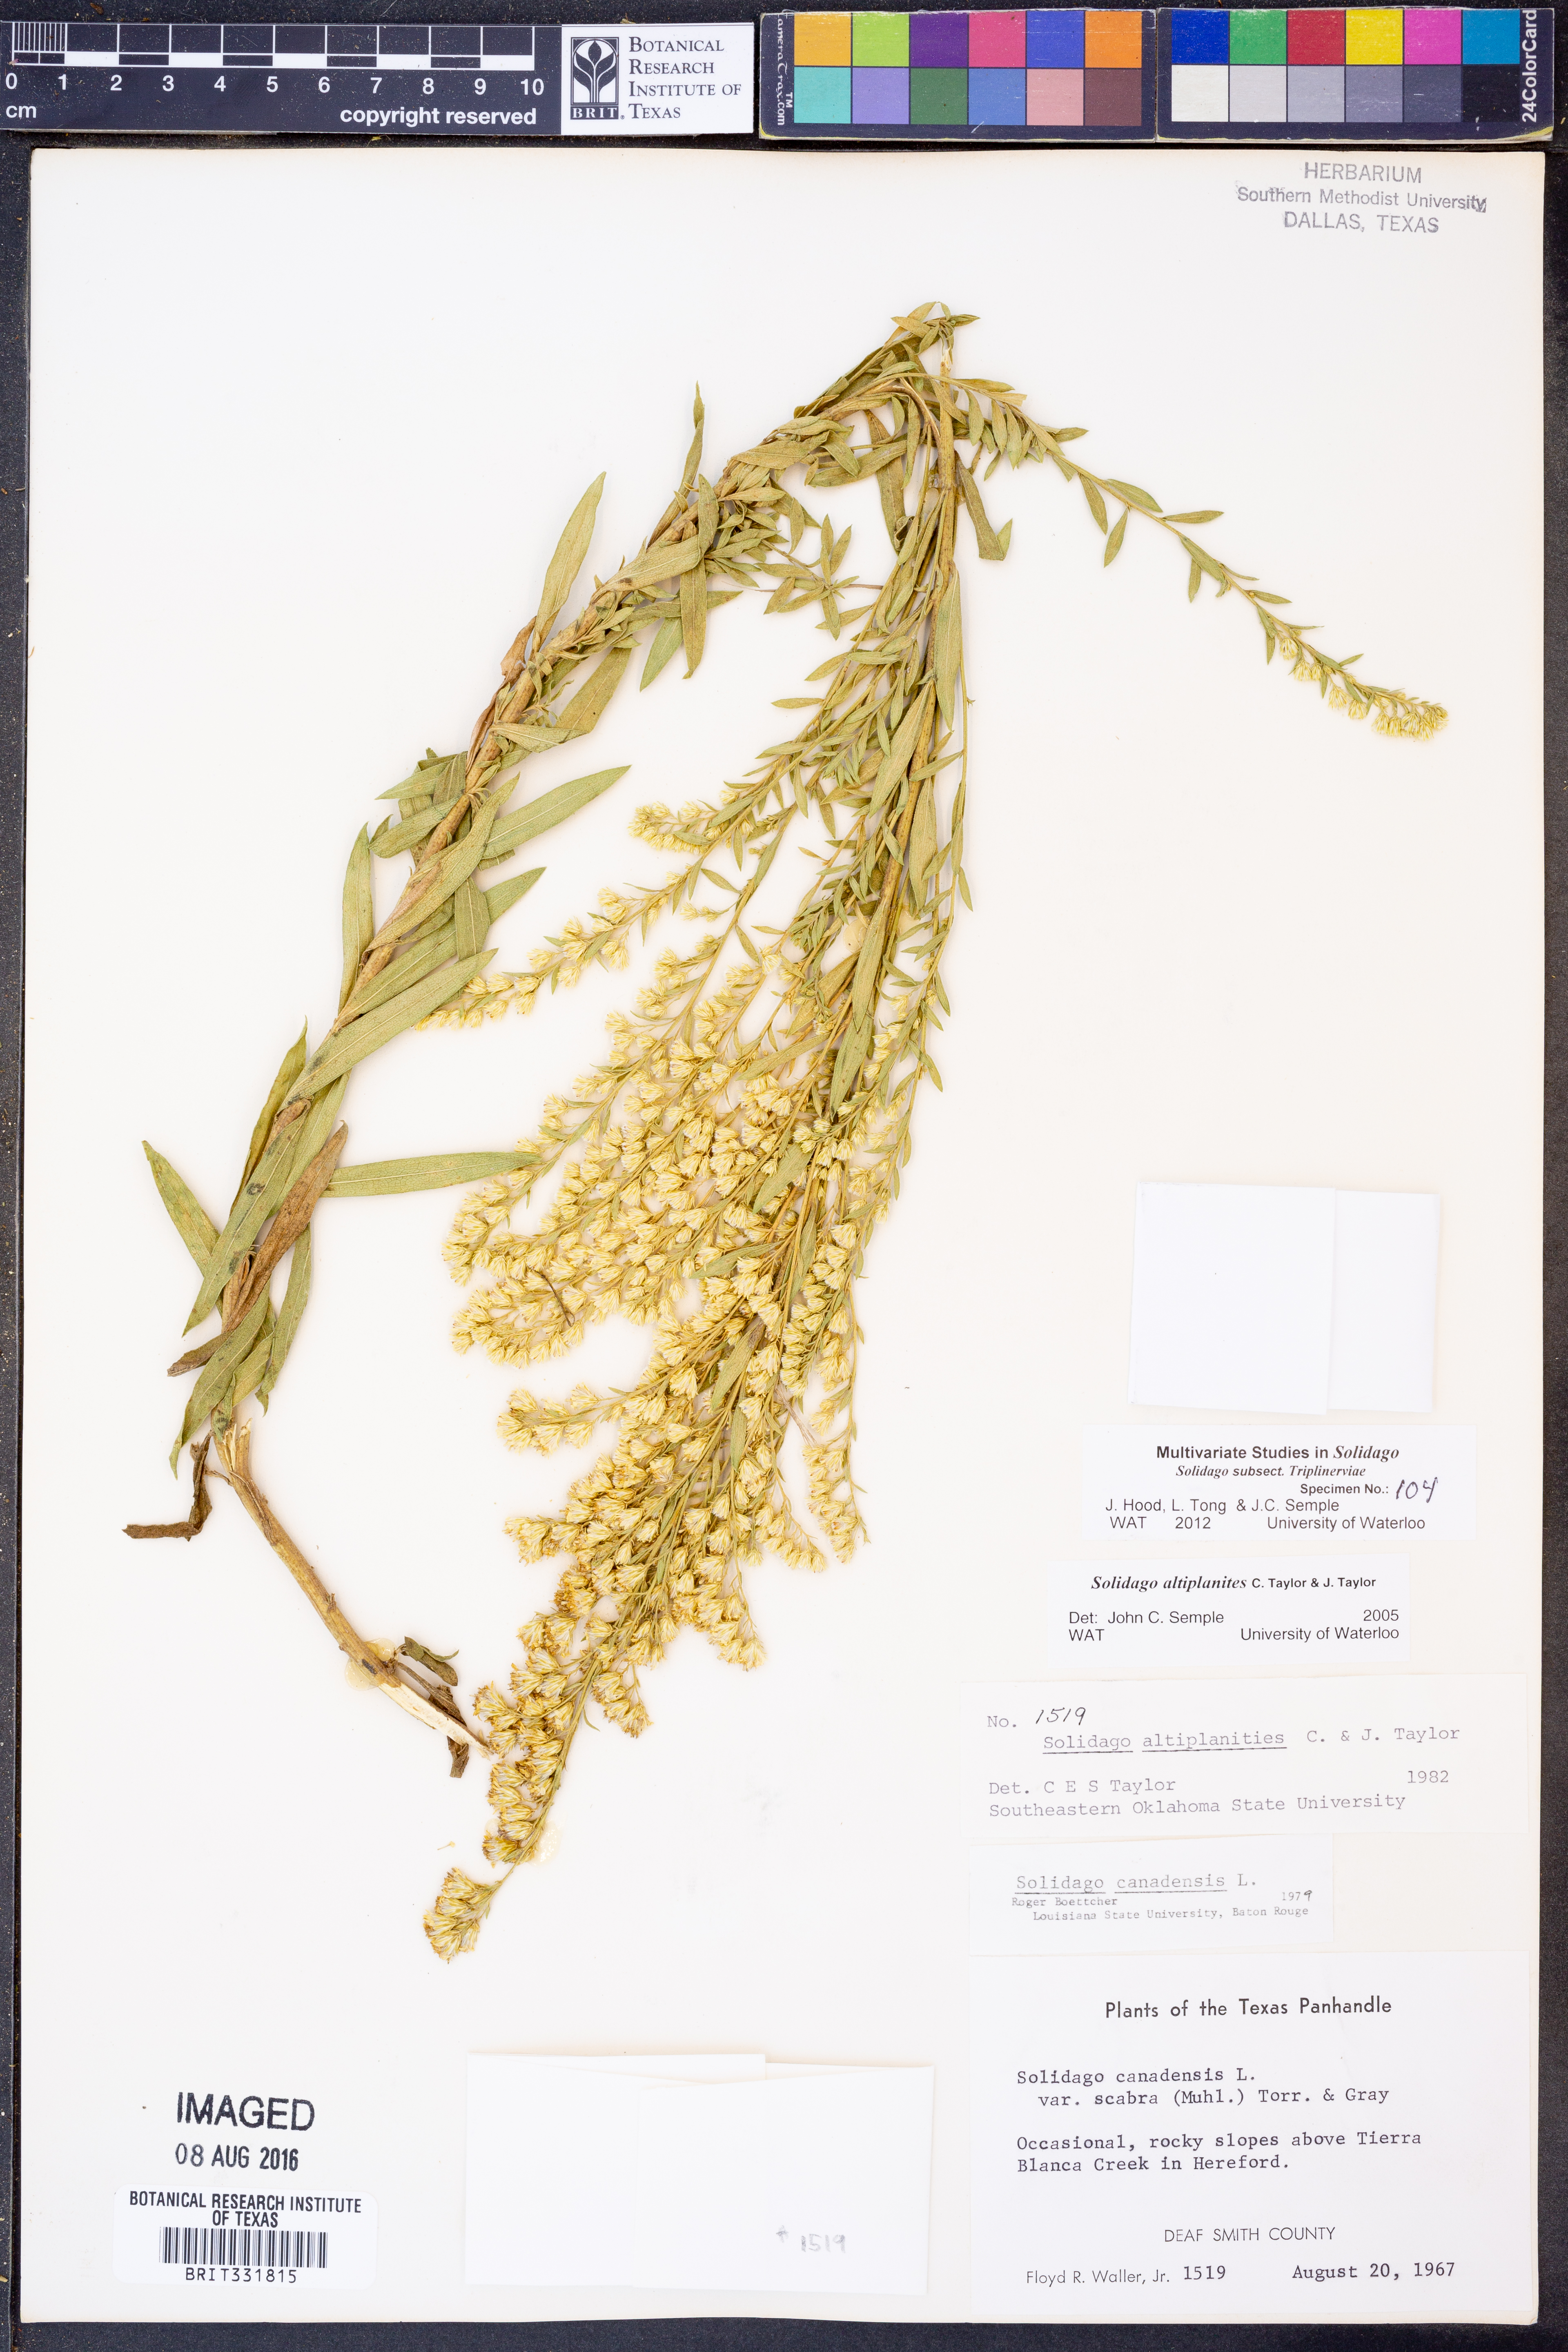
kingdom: Plantae
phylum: Tracheophyta
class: Magnoliopsida
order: Asterales
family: Asteraceae
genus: Solidago
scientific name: Solidago altiplanities
